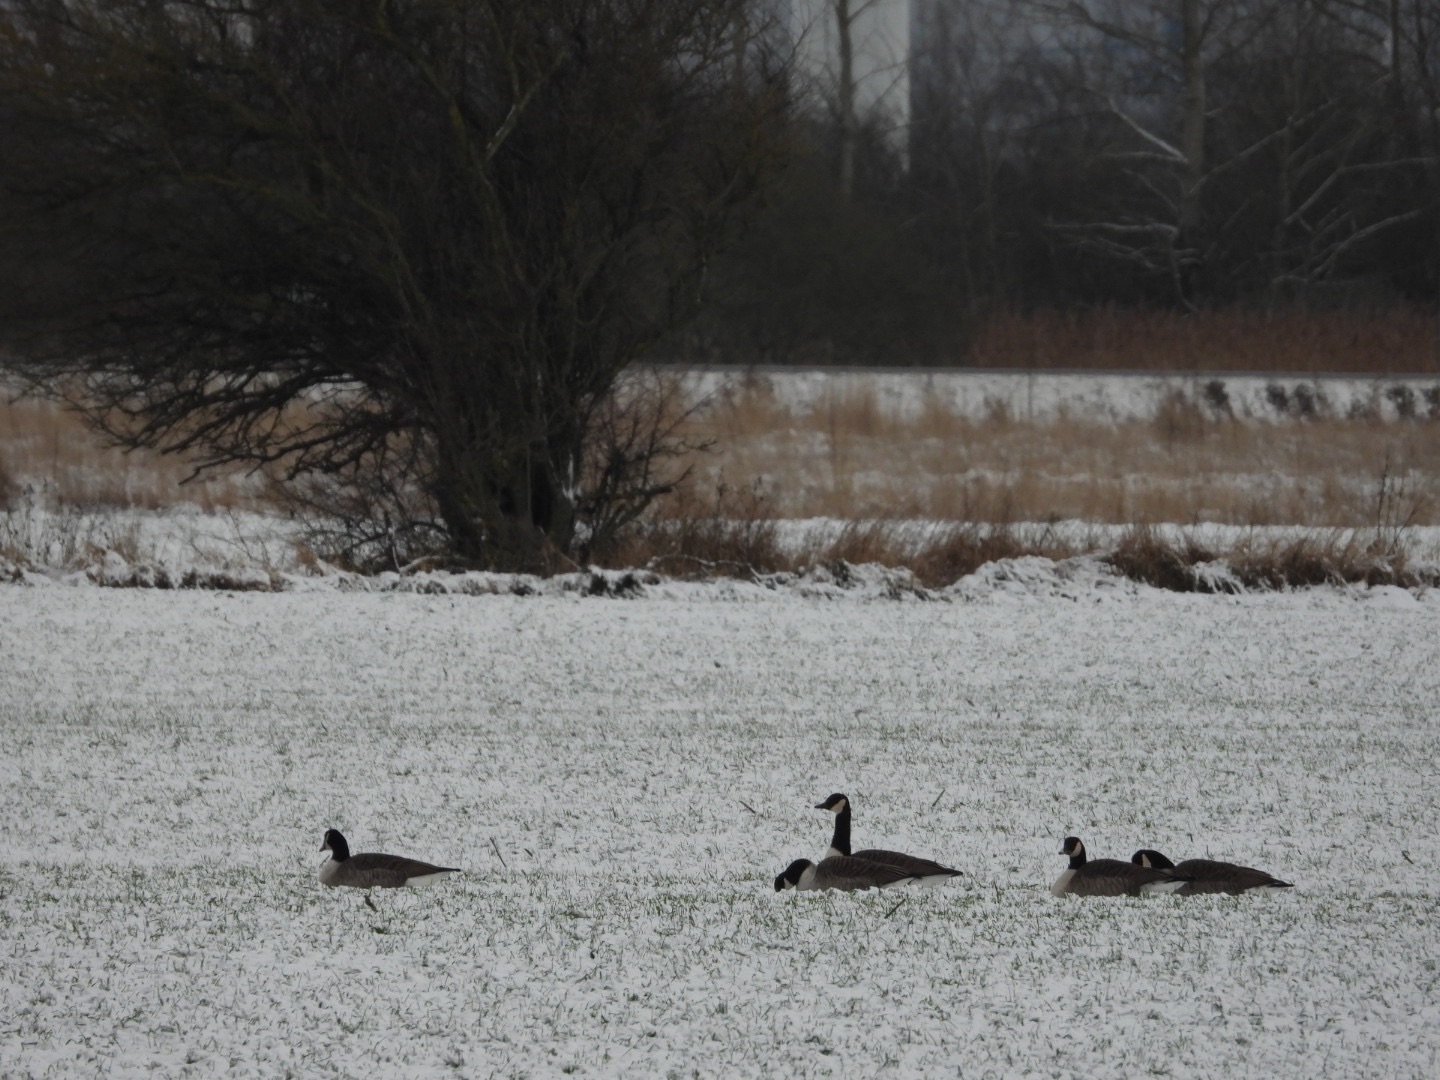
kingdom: Animalia
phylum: Chordata
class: Aves
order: Anseriformes
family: Anatidae
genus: Branta
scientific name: Branta canadensis
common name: Canadagås
